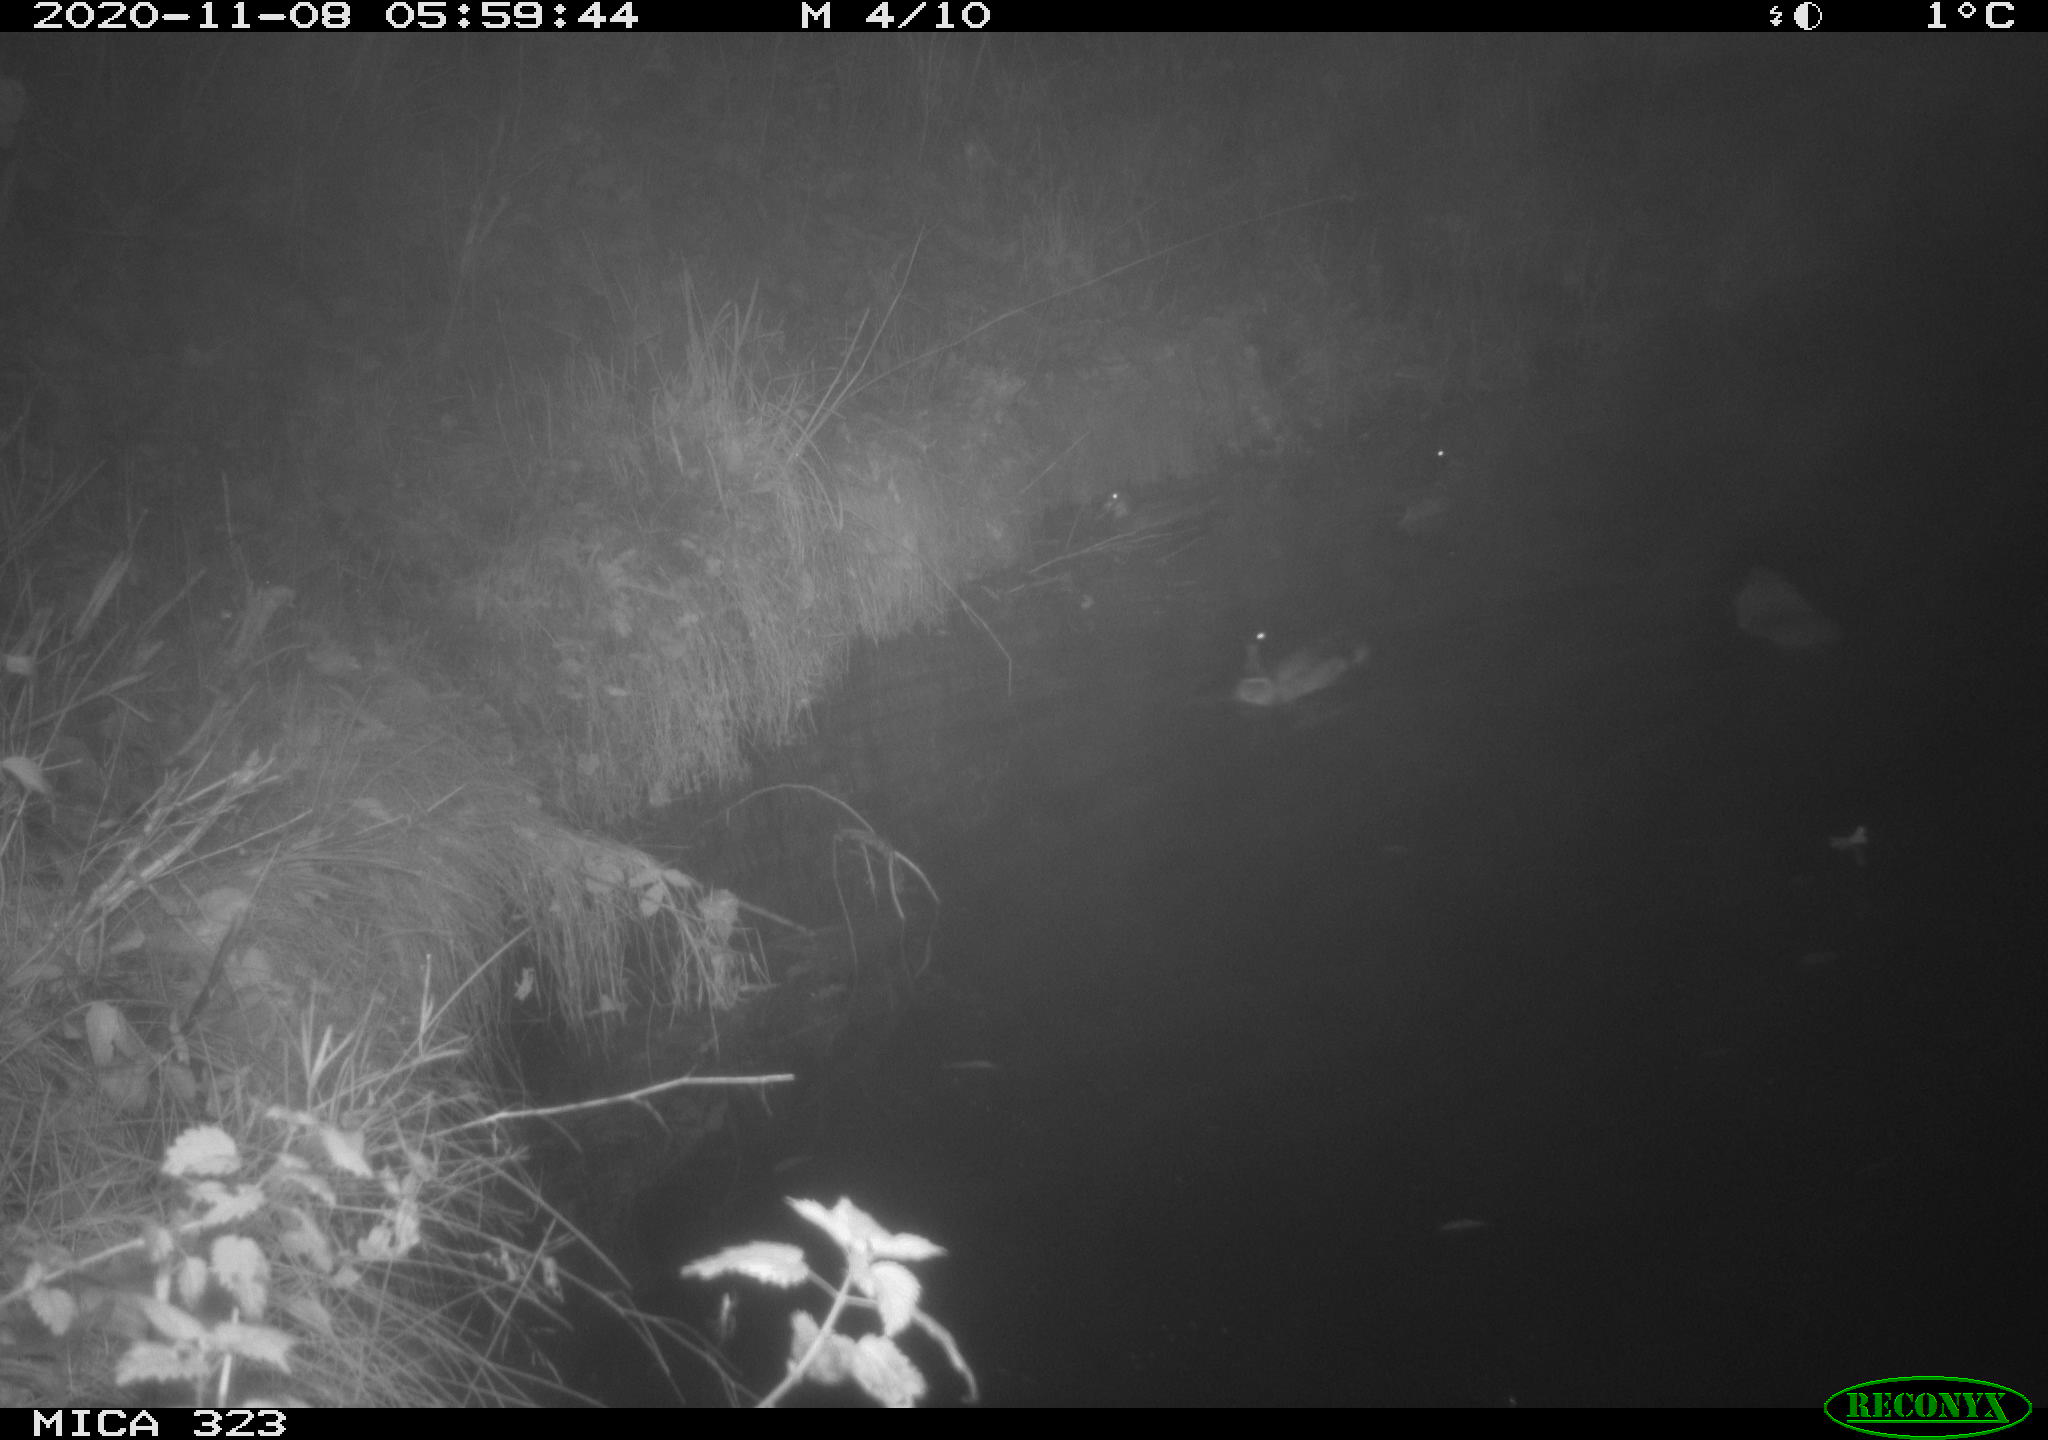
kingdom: Animalia
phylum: Chordata
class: Aves
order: Anseriformes
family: Anatidae
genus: Anas
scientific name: Anas platyrhynchos
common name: Mallard
